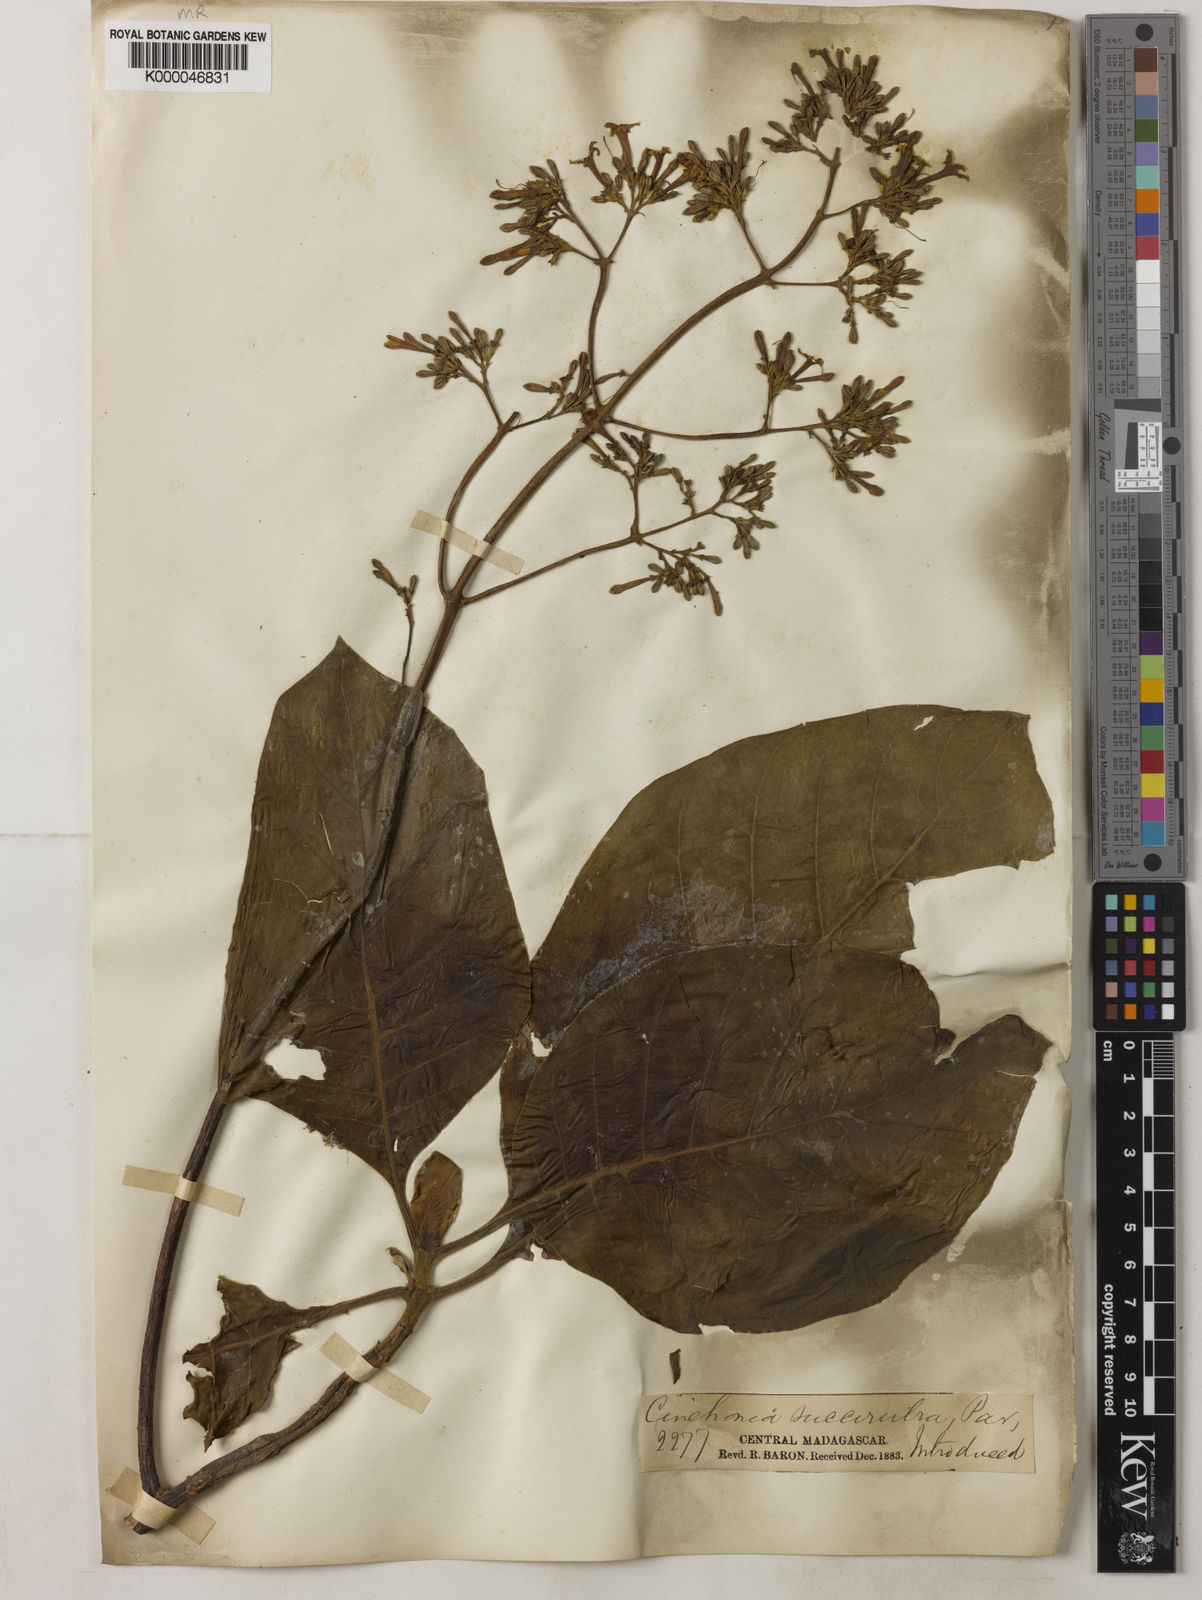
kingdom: Plantae
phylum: Tracheophyta
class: Magnoliopsida
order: Gentianales
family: Rubiaceae
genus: Cinchona
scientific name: Cinchona pubescens
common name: Quinine
